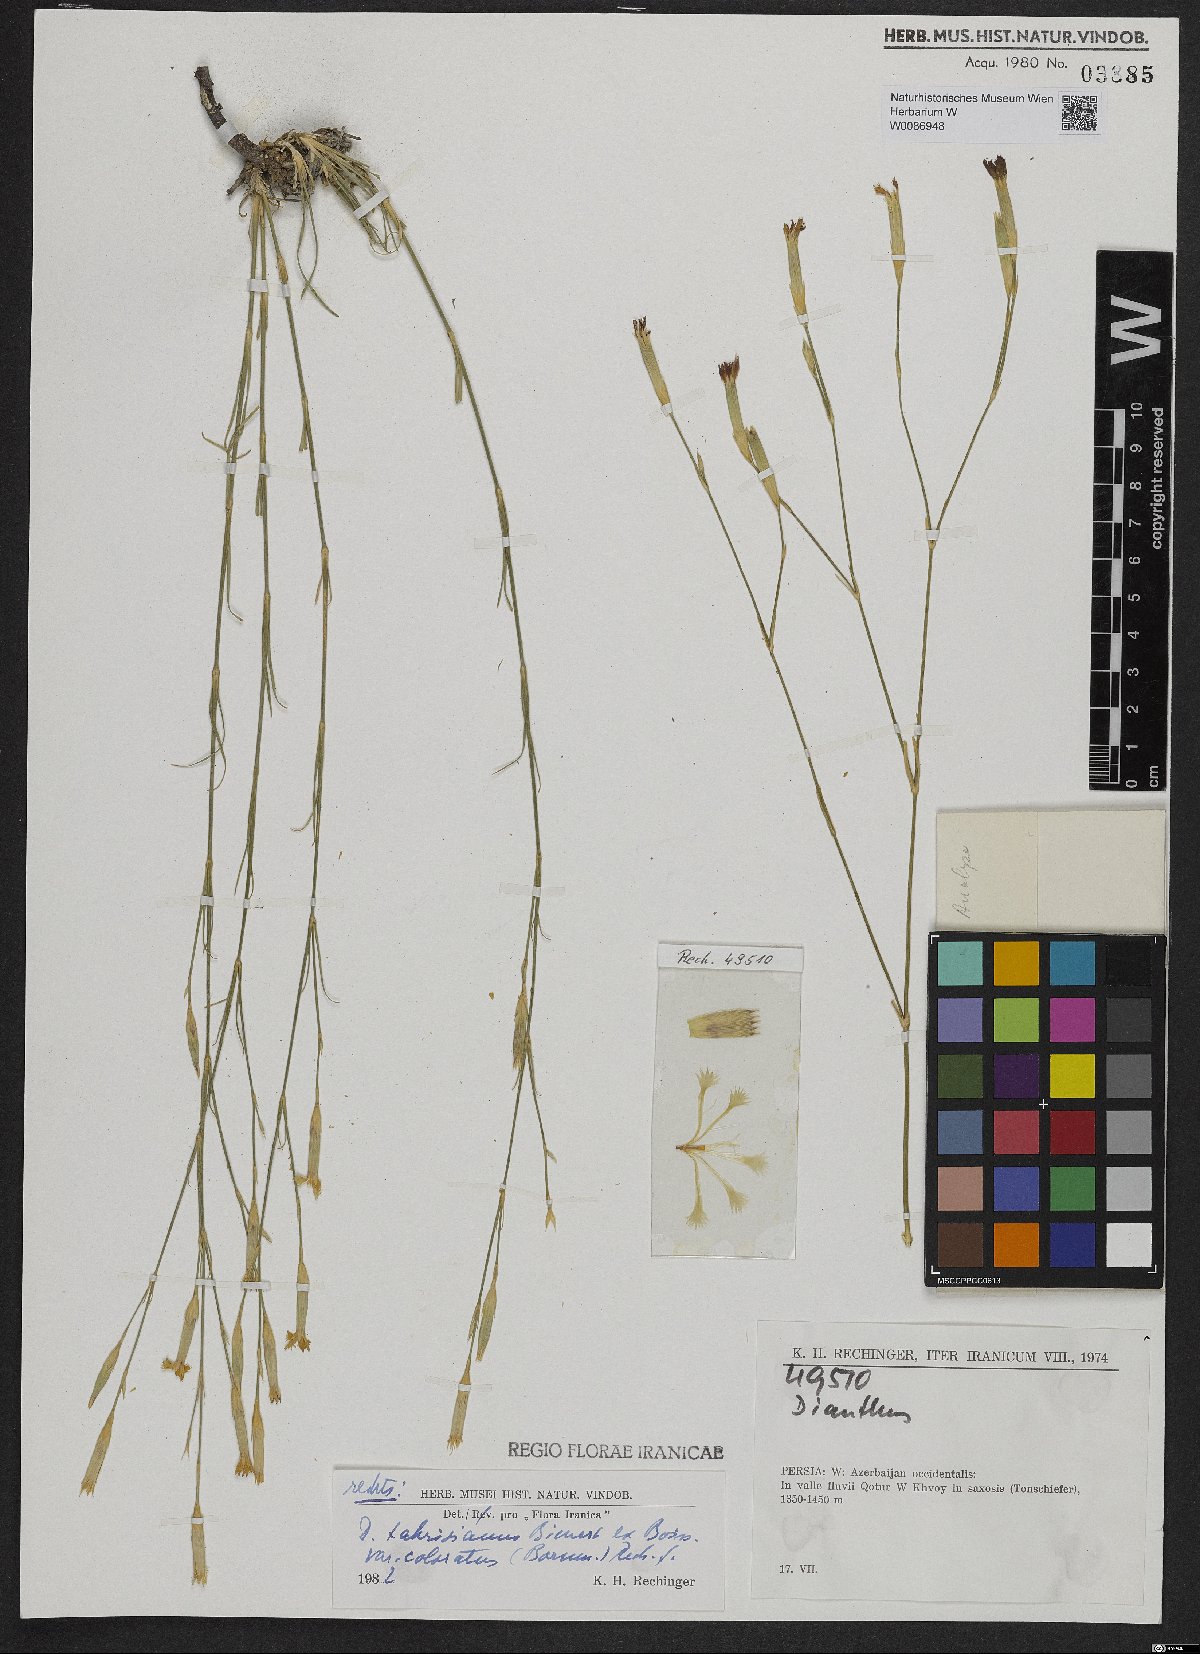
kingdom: Plantae
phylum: Tracheophyta
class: Magnoliopsida
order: Caryophyllales
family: Caryophyllaceae
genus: Dianthus
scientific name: Dianthus tabrisianus
